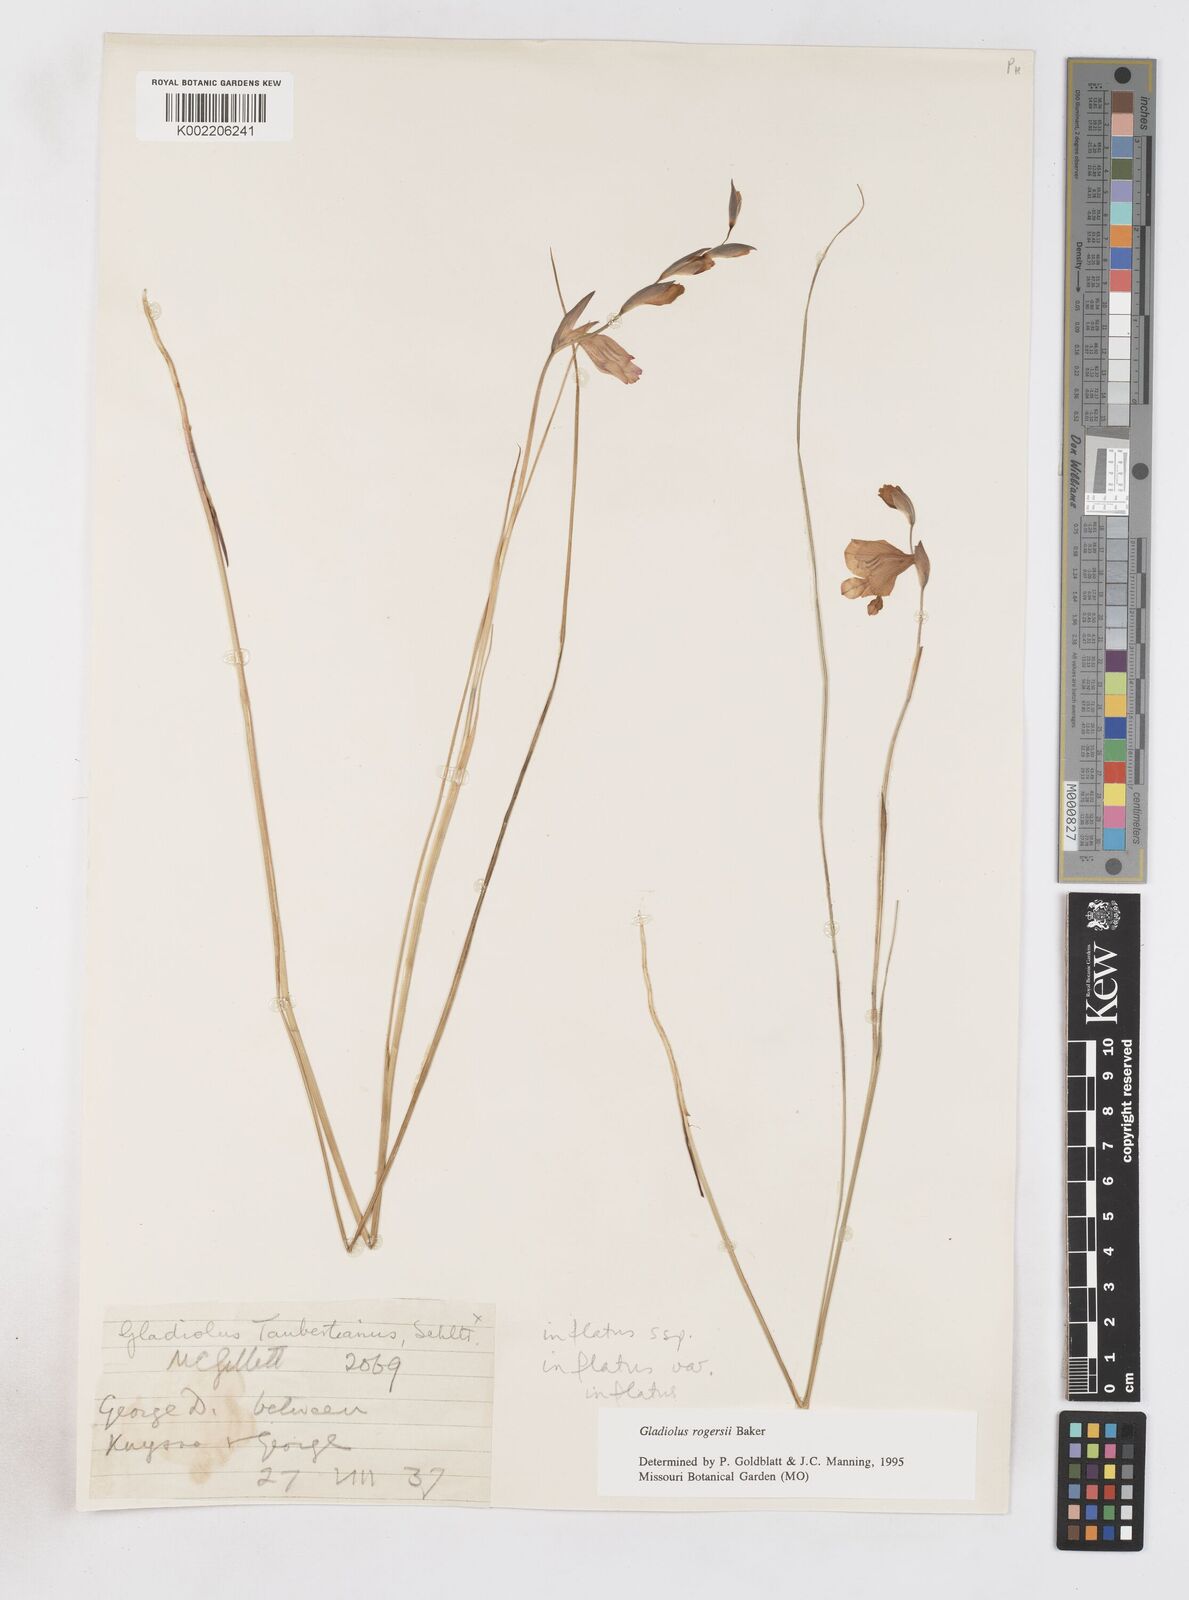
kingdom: Plantae
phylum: Tracheophyta
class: Liliopsida
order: Asparagales
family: Iridaceae
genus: Gladiolus
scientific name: Gladiolus rogersii
